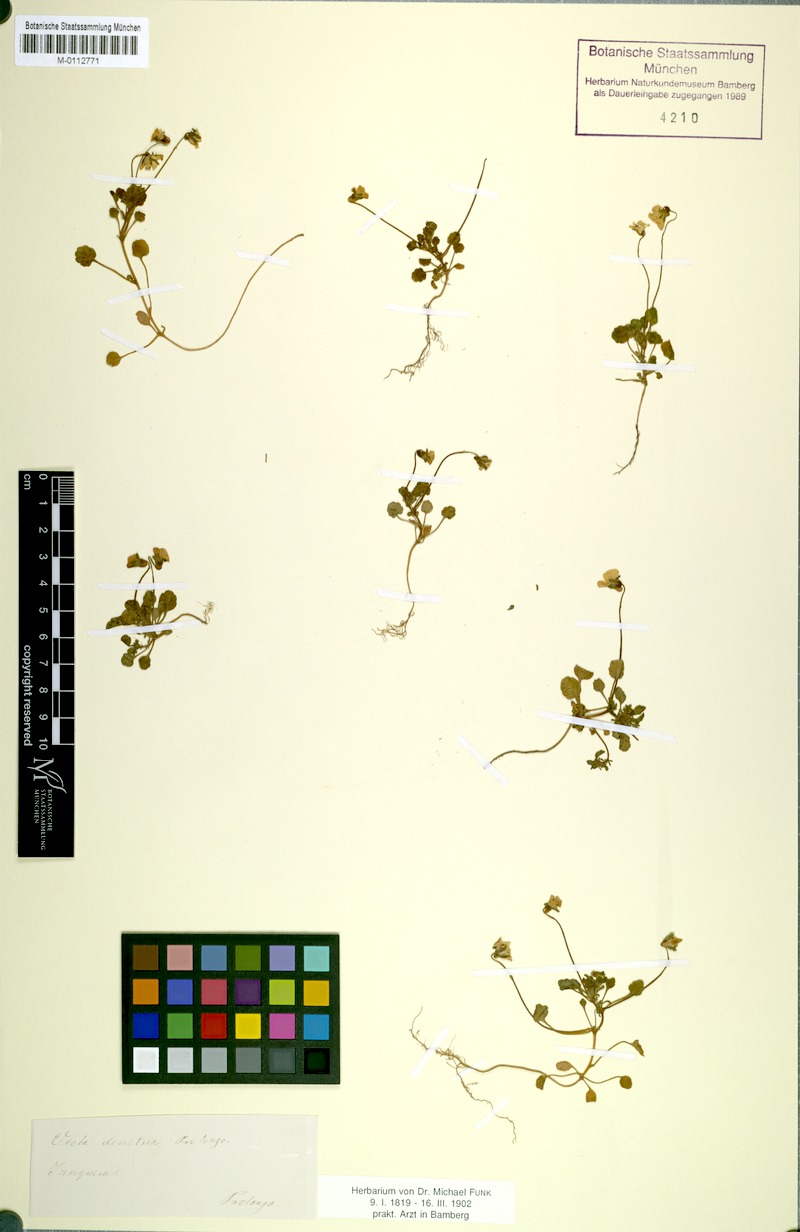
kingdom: Plantae
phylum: Tracheophyta
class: Magnoliopsida
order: Malpighiales
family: Violaceae
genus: Viola
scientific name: Viola demetria
